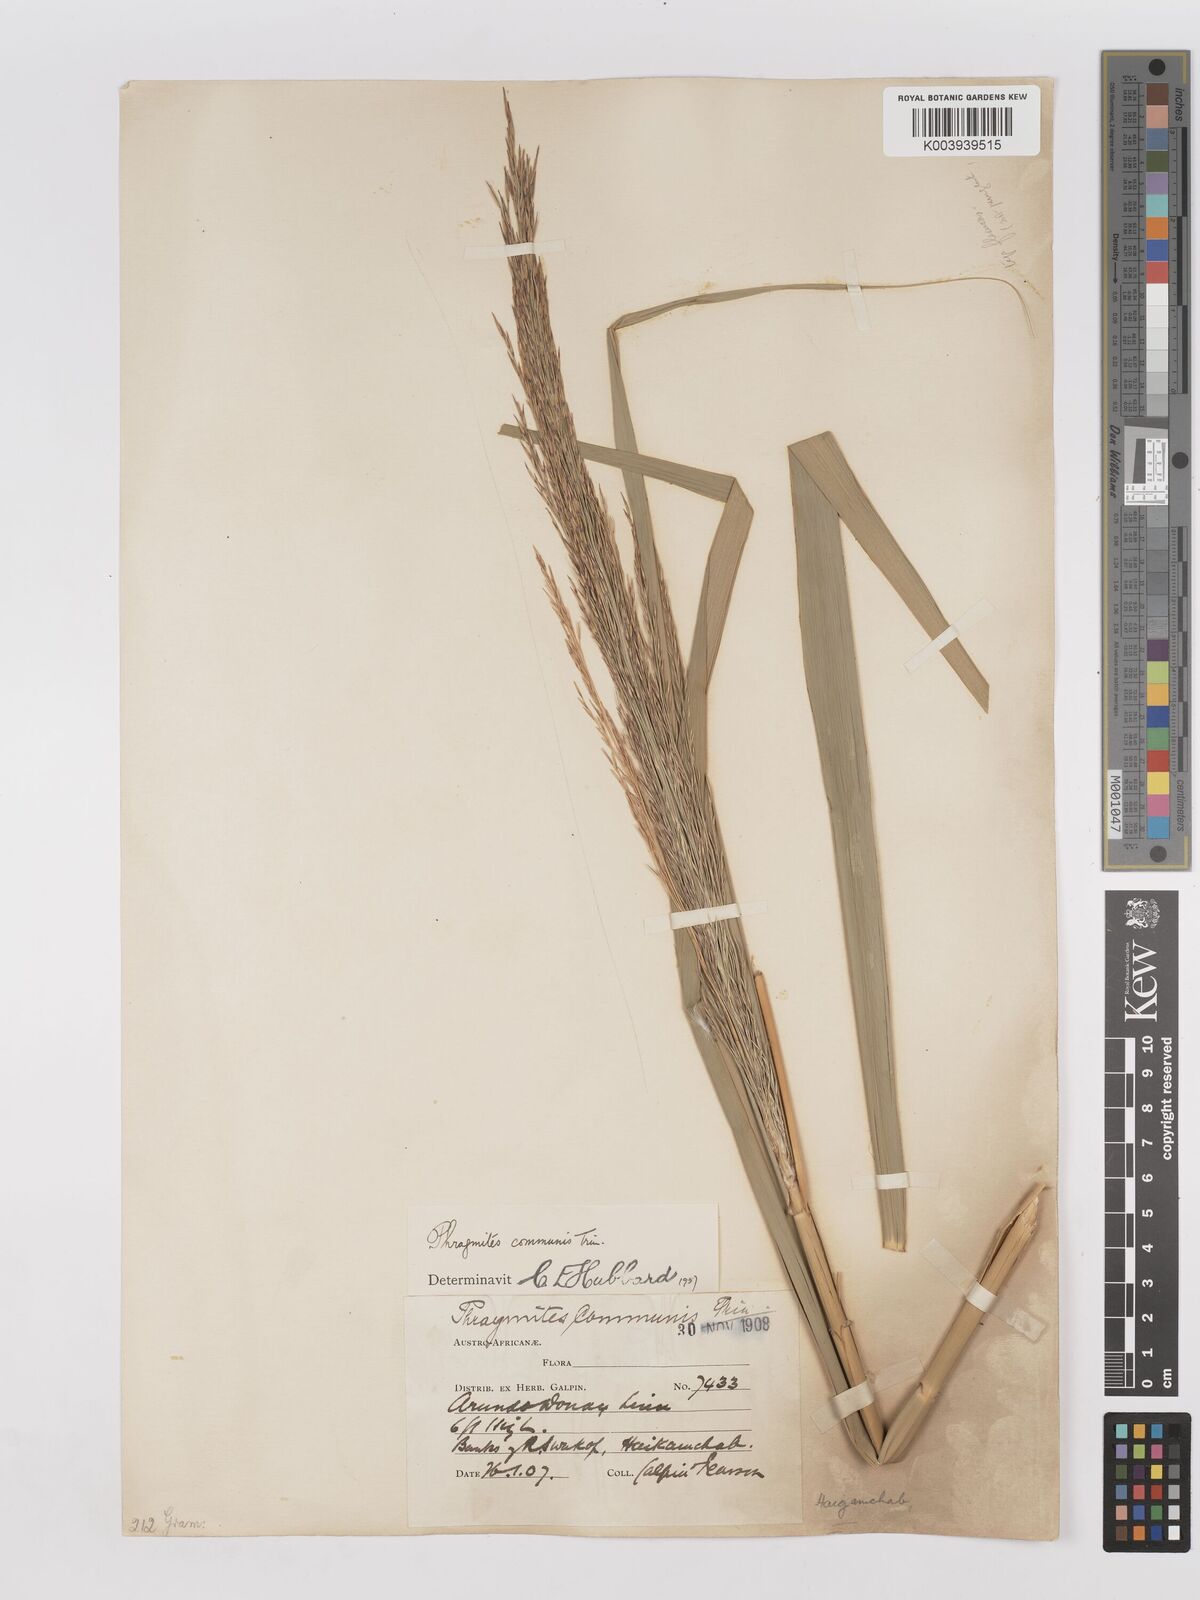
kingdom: Plantae
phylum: Tracheophyta
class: Liliopsida
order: Poales
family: Poaceae
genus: Phragmites
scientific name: Phragmites australis
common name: Common reed
